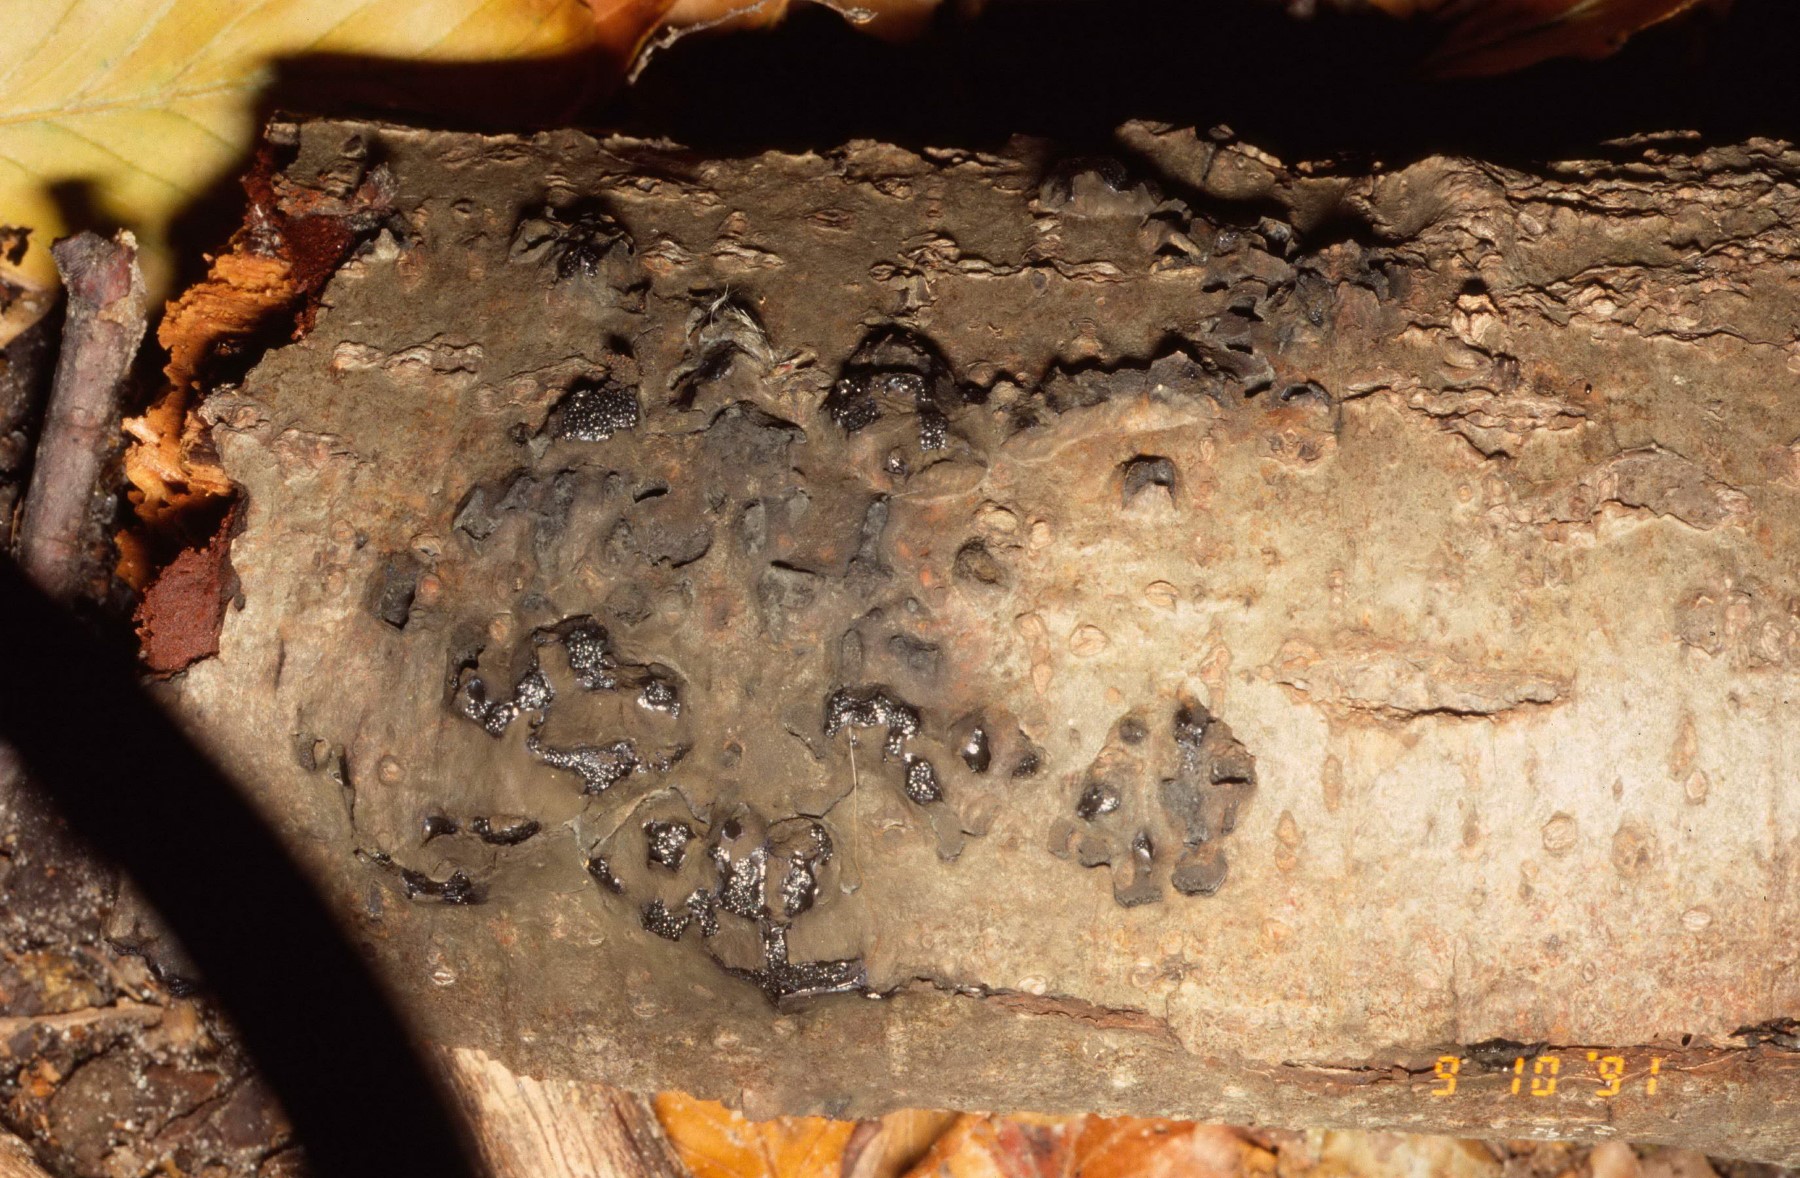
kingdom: Fungi
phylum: Ascomycota
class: Sordariomycetes
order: Boliniales
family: Boliniaceae
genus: Camaropella
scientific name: Camaropella microspora
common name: småsporet kulsnegl
